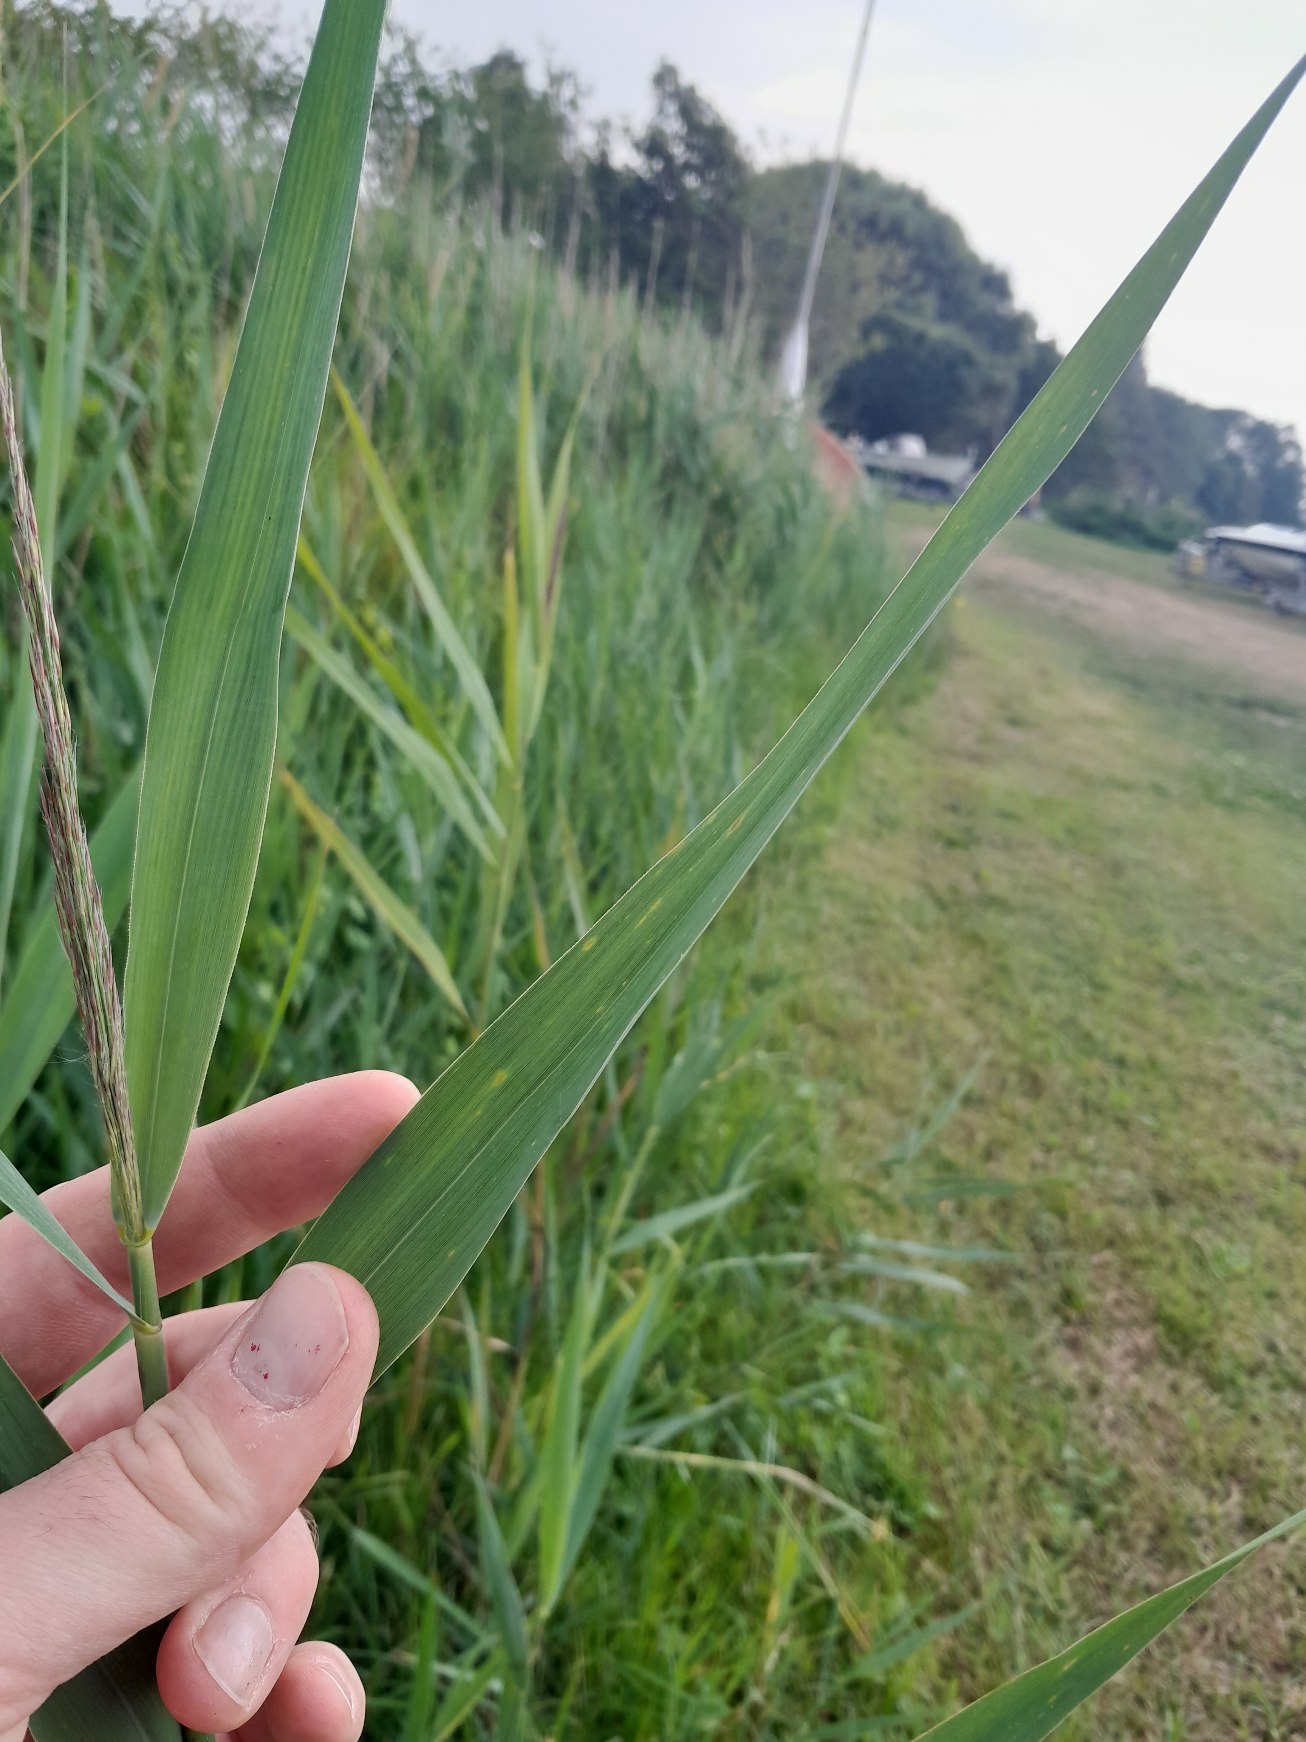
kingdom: Plantae
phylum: Tracheophyta
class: Liliopsida
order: Poales
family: Poaceae
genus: Phragmites
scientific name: Phragmites australis
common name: Tagrør
